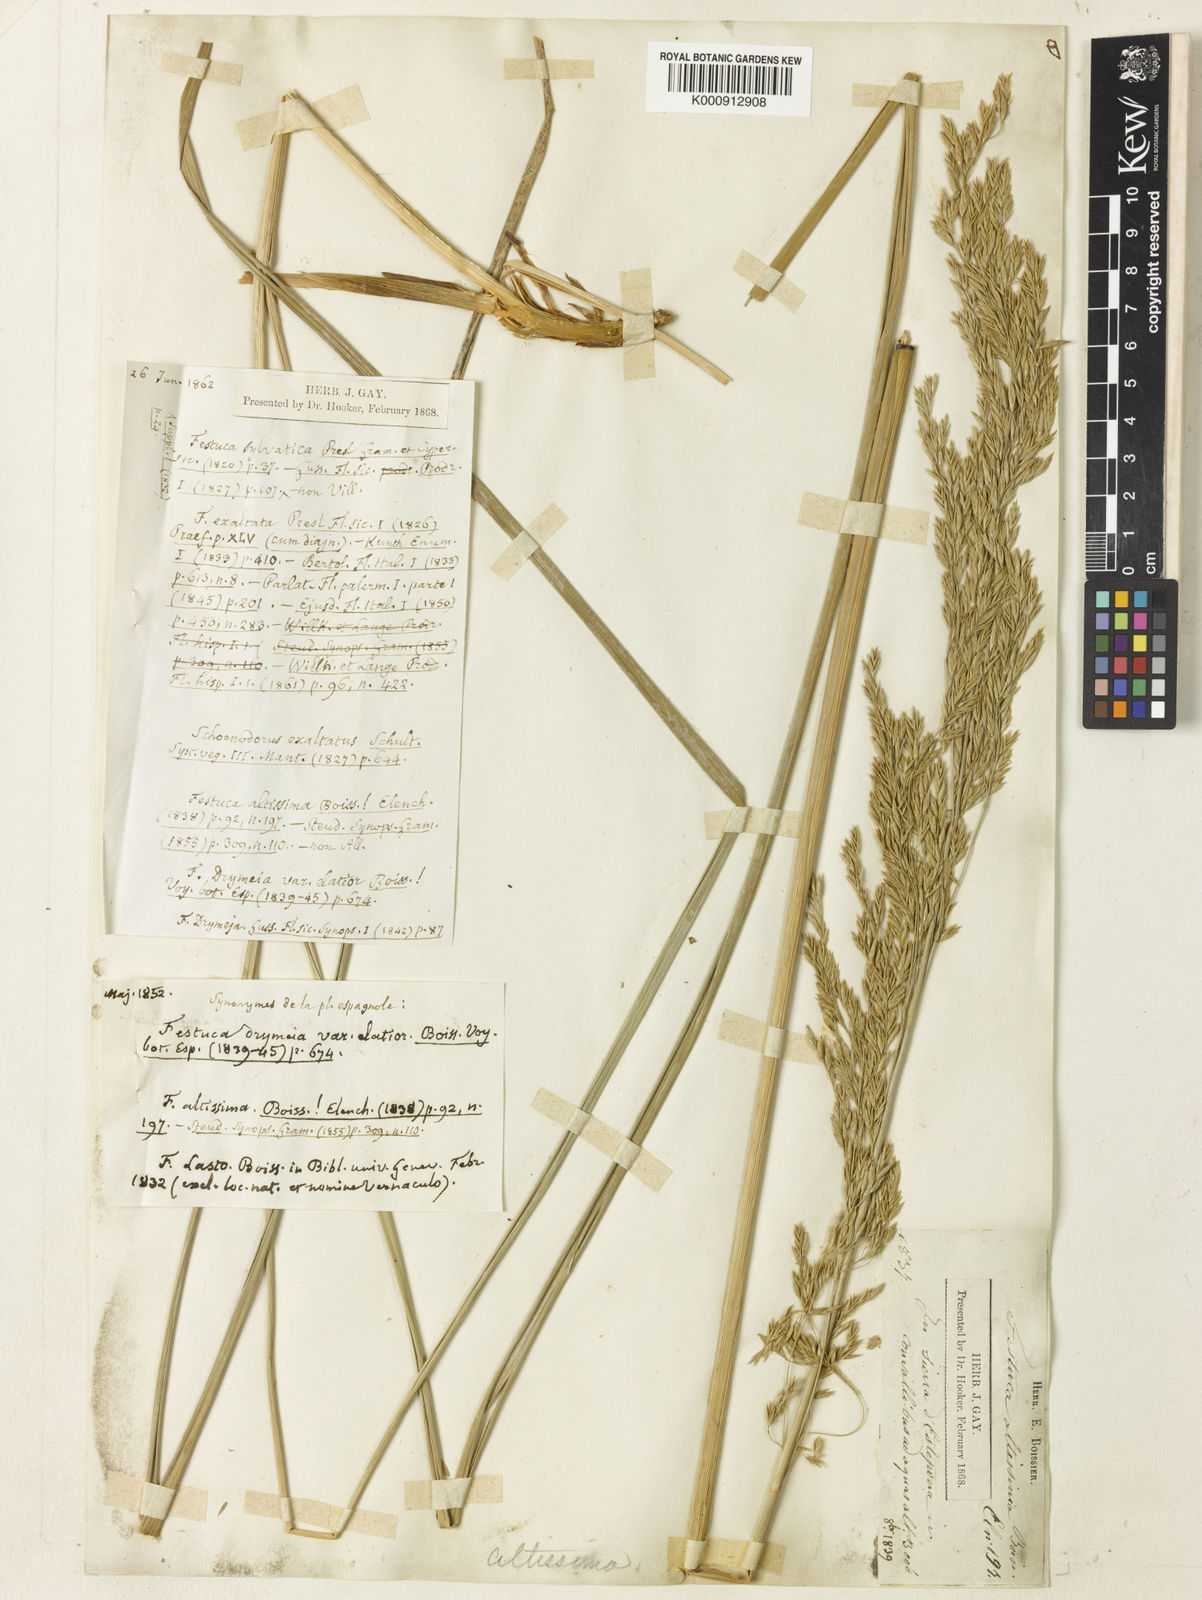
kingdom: Plantae
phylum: Tracheophyta
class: Liliopsida
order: Poales
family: Poaceae
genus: Festuca
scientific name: Festuca drymeja
